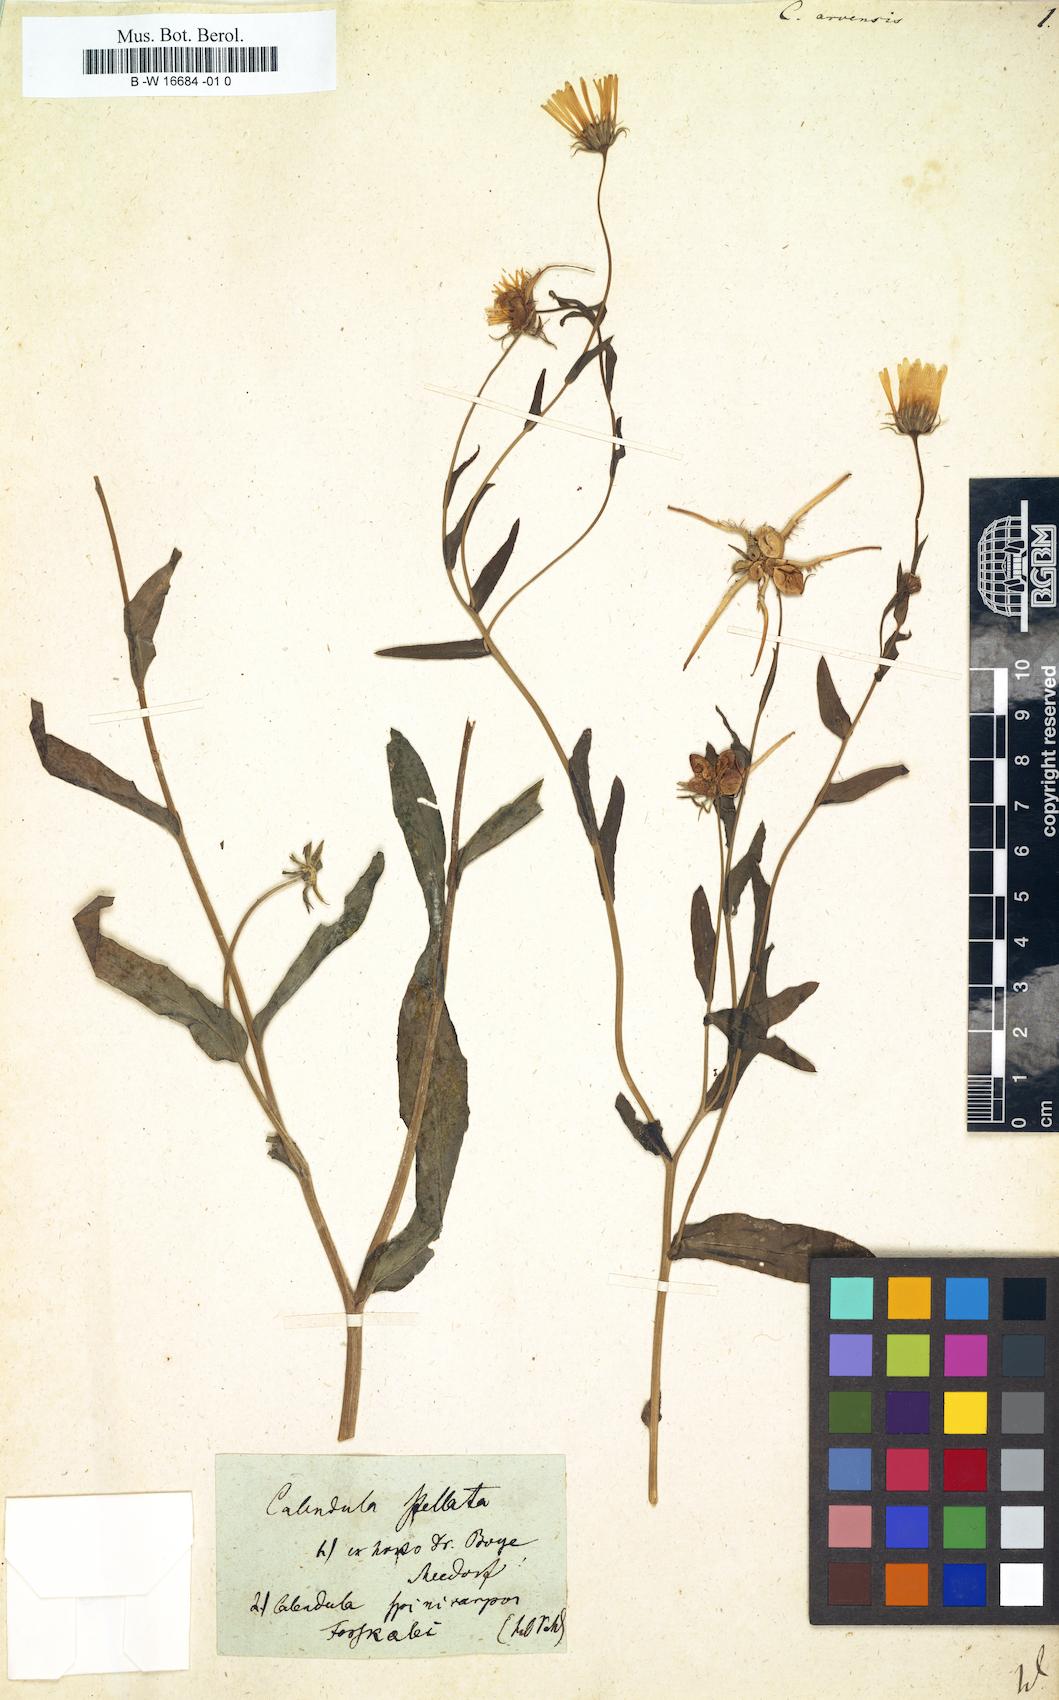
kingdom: Plantae
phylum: Tracheophyta
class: Magnoliopsida
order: Asterales
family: Asteraceae
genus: Calendula
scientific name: Calendula arvensis
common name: Field marigold
